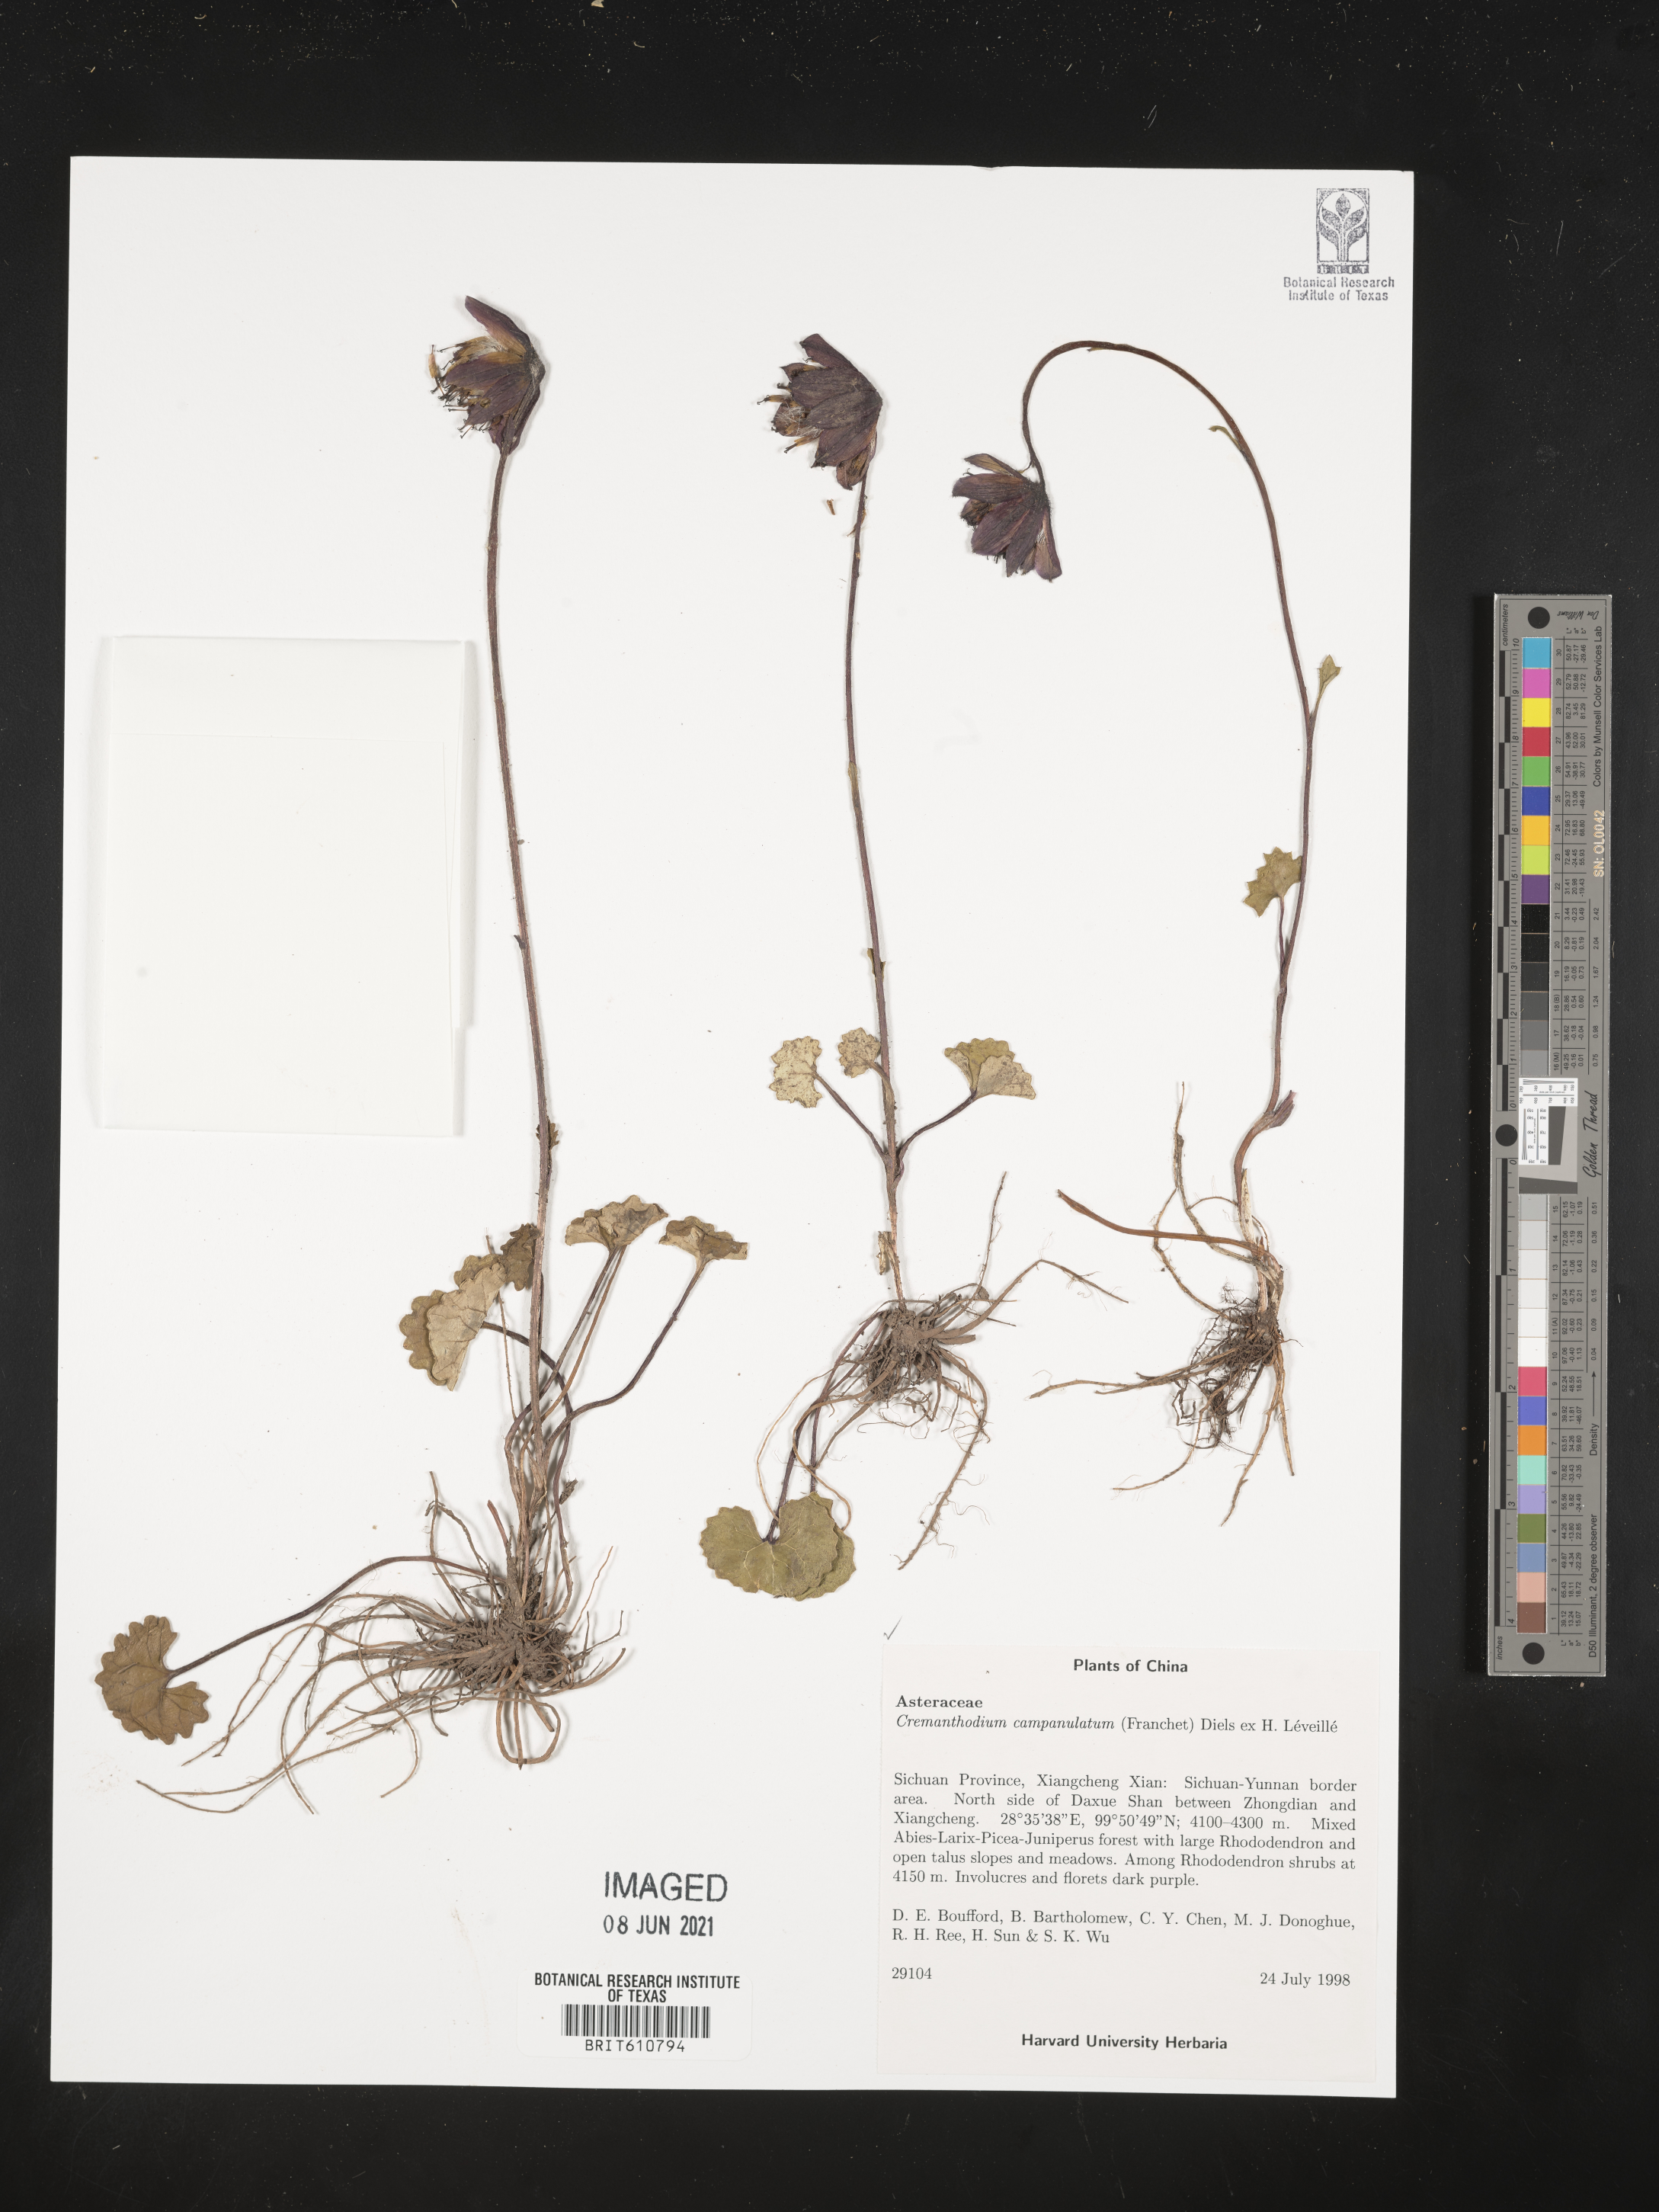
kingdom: Plantae
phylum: Tracheophyta
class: Magnoliopsida
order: Asterales
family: Asteraceae
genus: Cremanthodium
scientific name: Cremanthodium campanulatum
